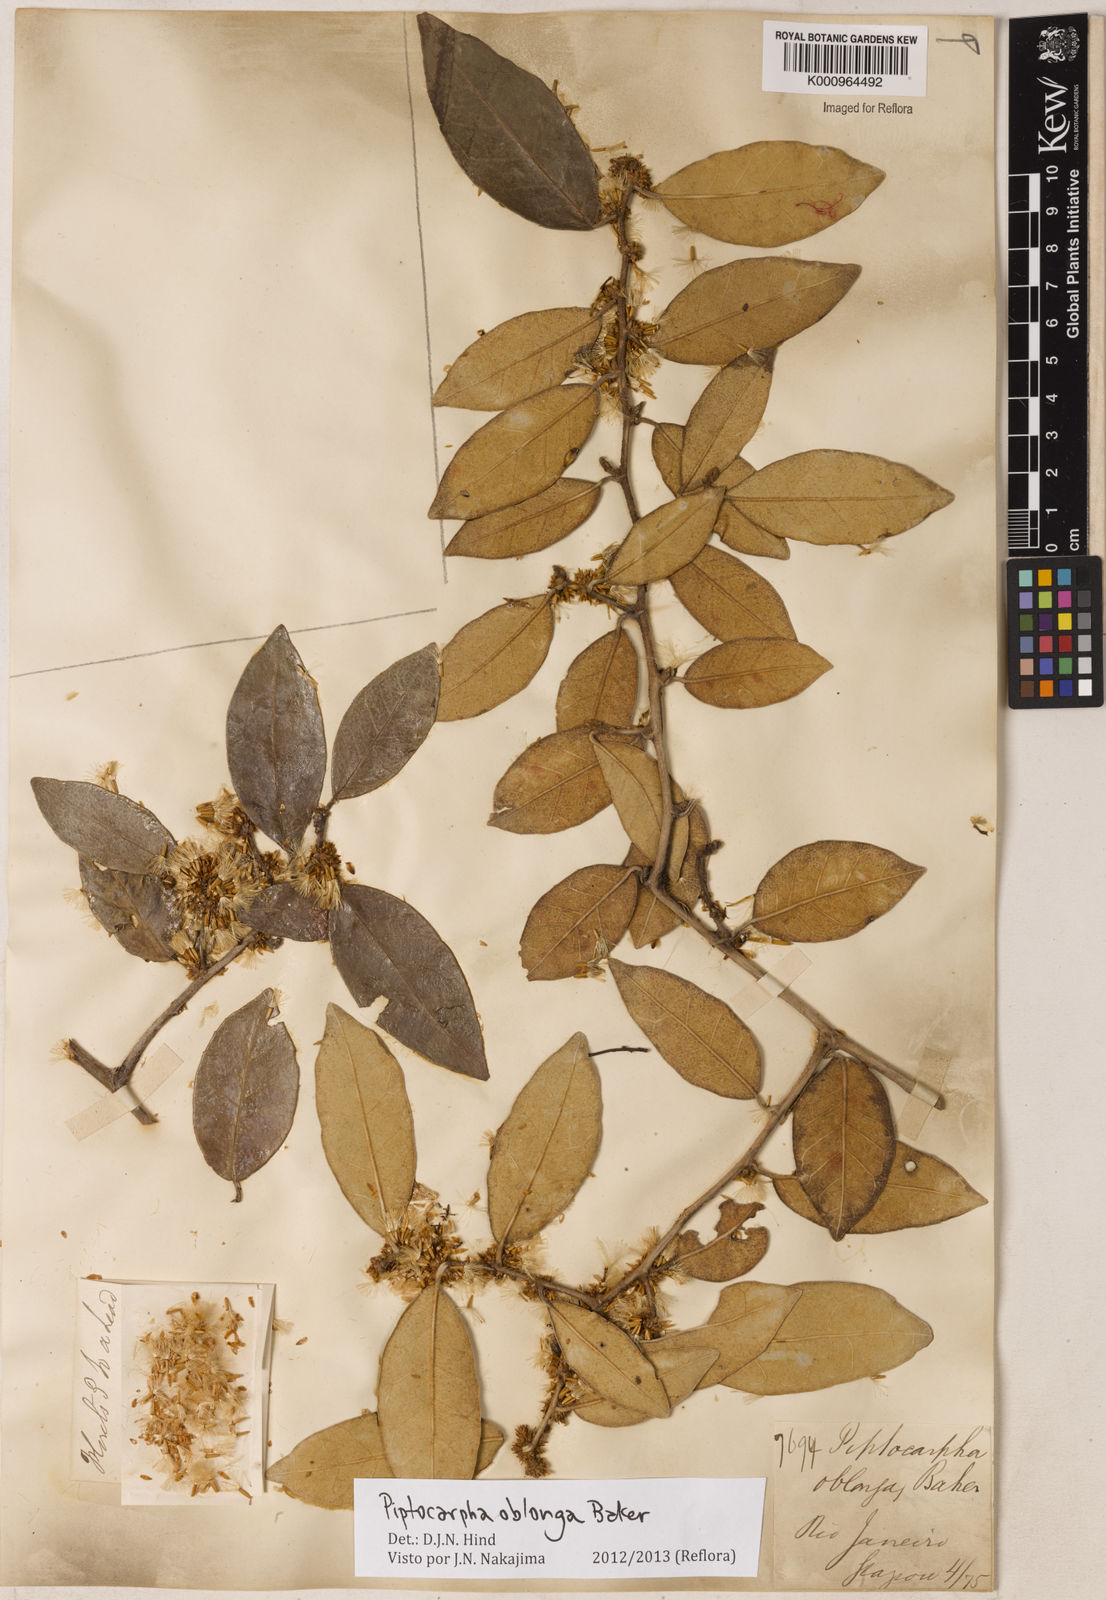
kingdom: Plantae
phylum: Tracheophyta
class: Magnoliopsida
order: Asterales
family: Asteraceae
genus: Piptocarpha
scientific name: Piptocarpha oblonga
